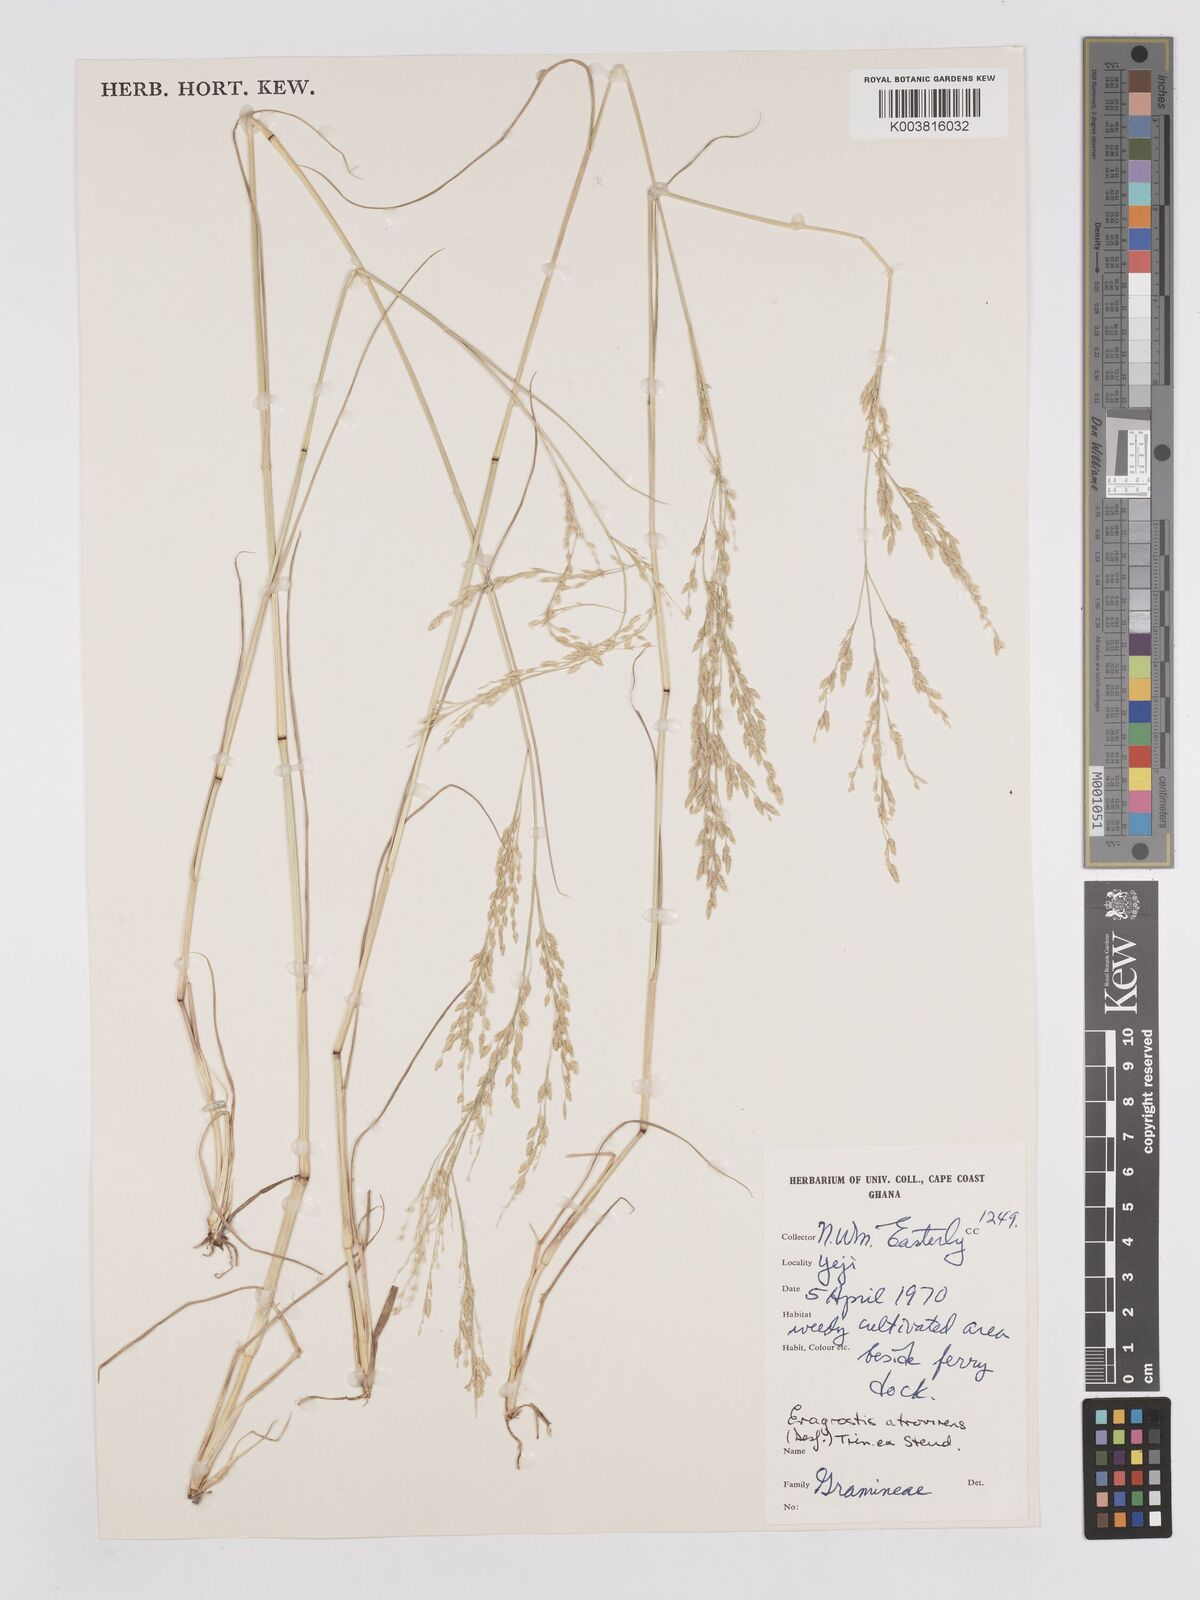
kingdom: Plantae
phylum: Tracheophyta
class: Liliopsida
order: Poales
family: Poaceae
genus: Eragrostis
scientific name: Eragrostis atrovirens
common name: Thalia lovegrass
